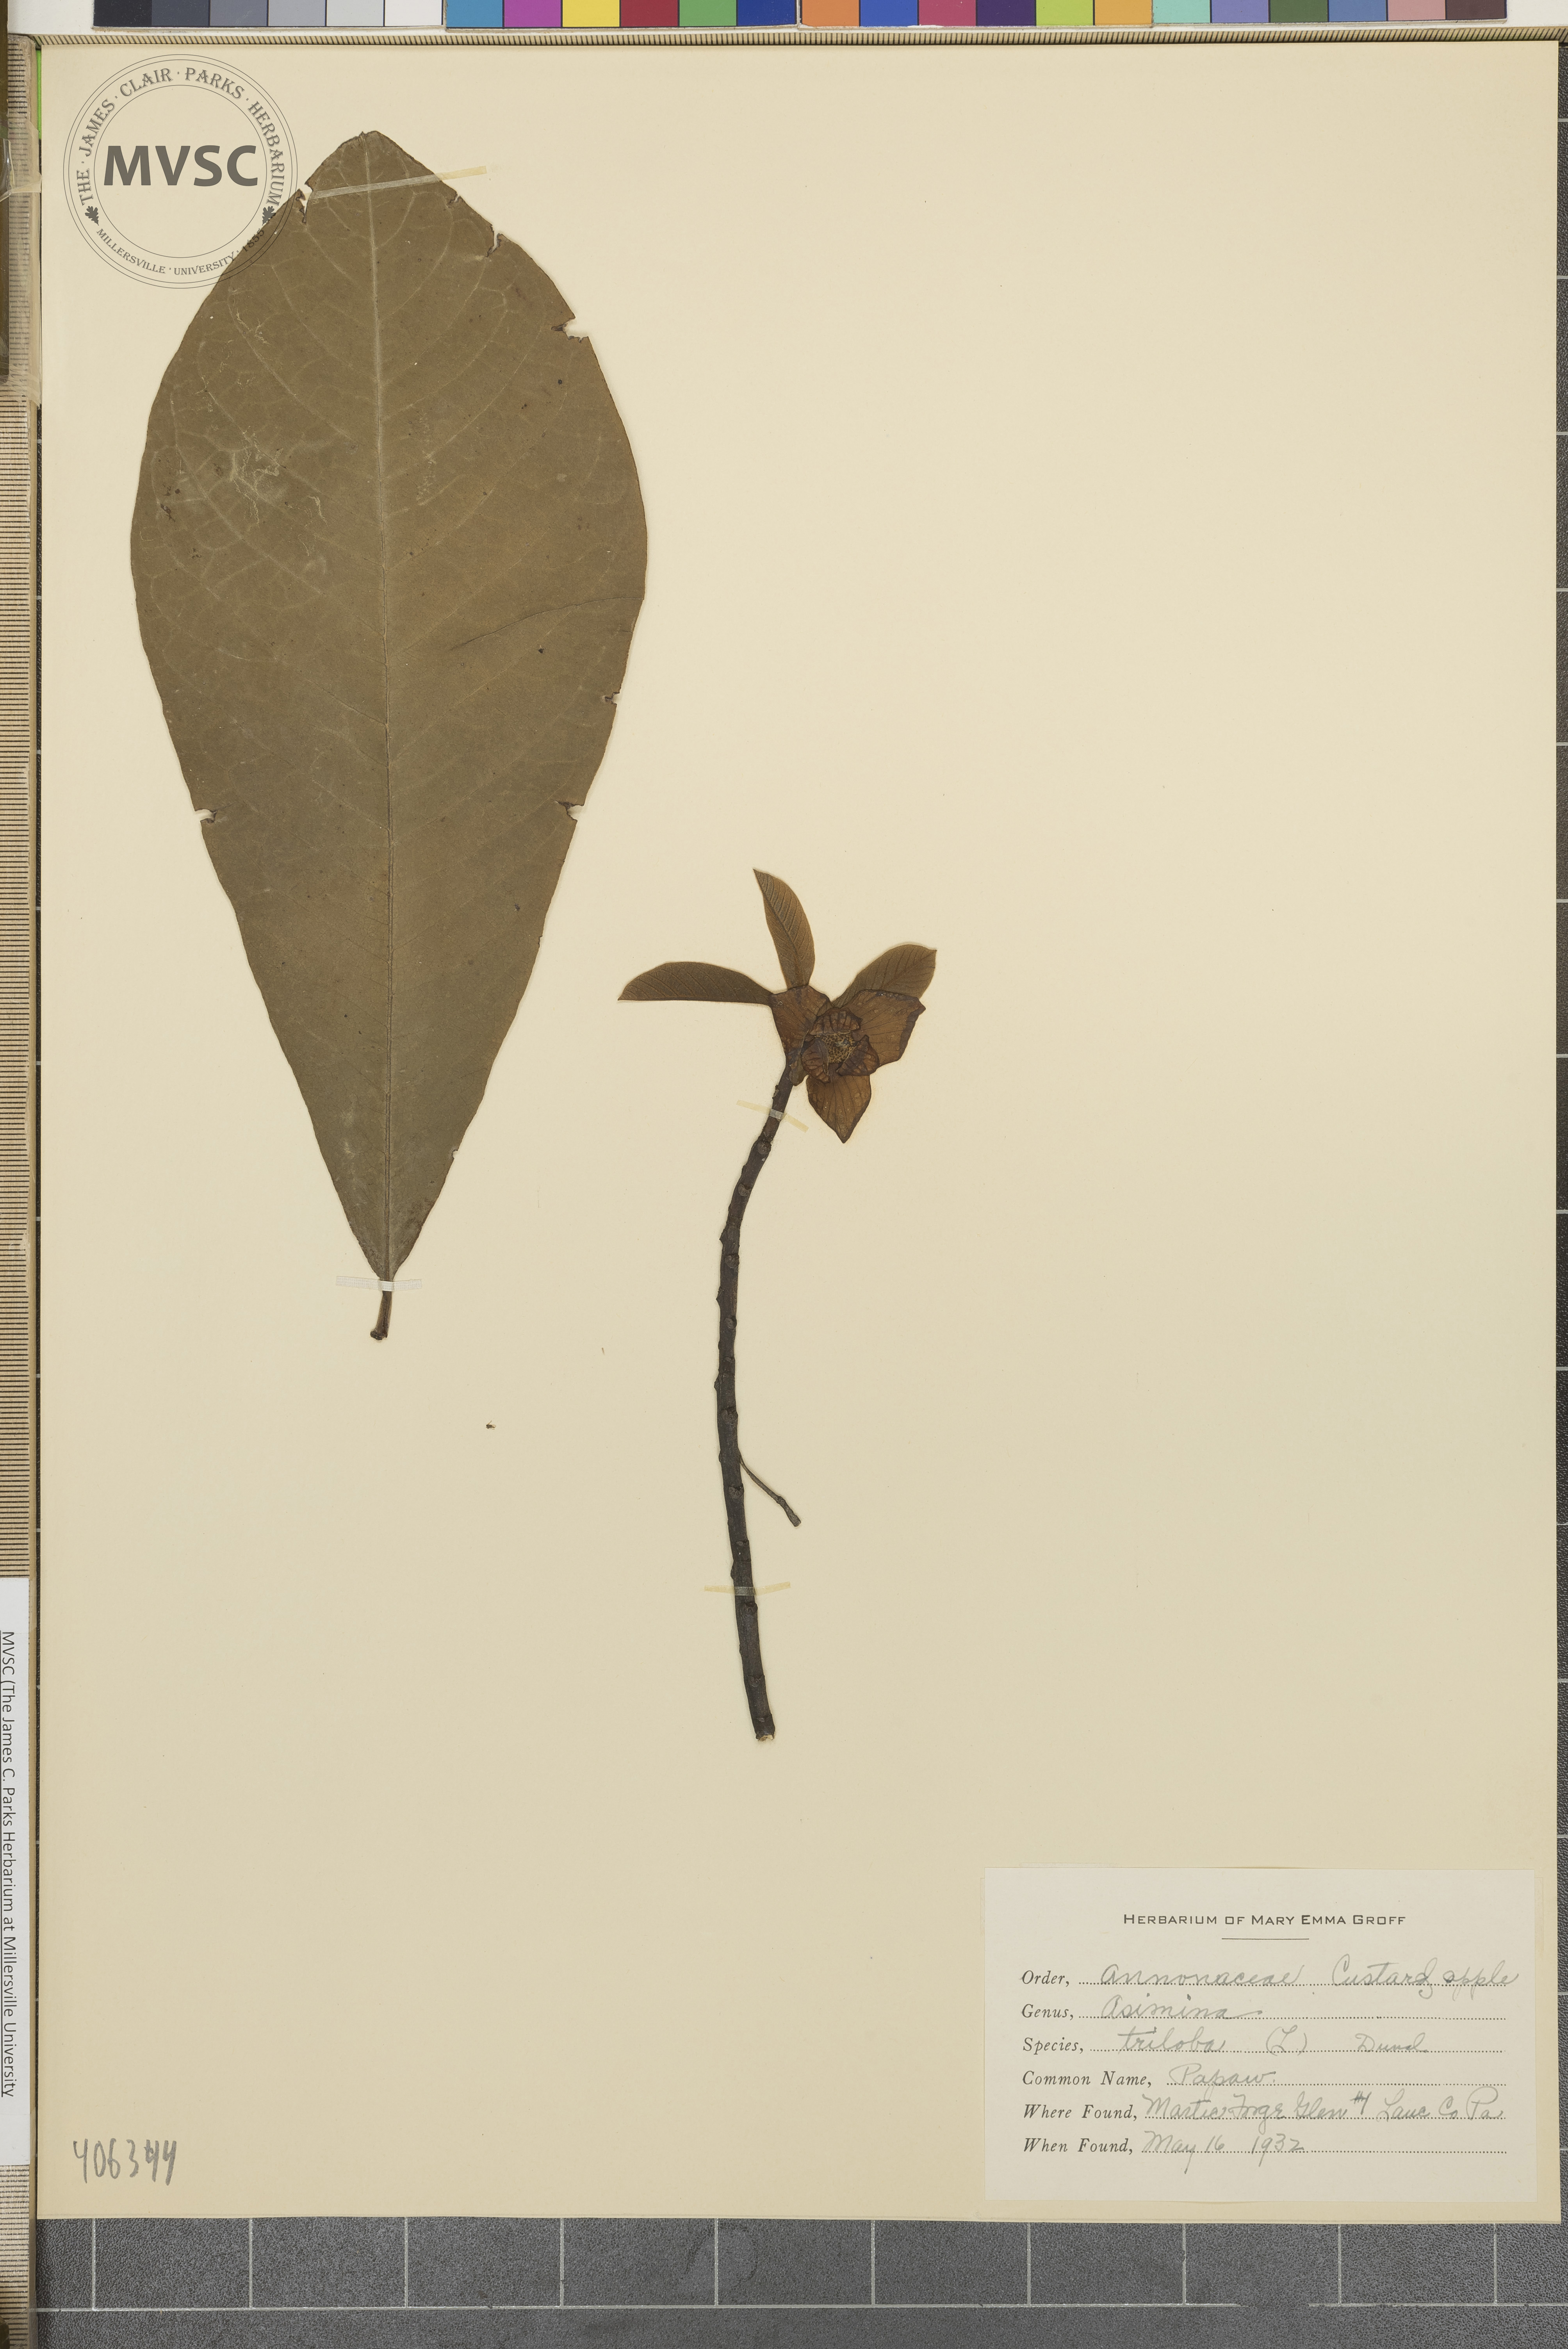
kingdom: Plantae
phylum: Tracheophyta
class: Magnoliopsida
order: Magnoliales
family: Annonaceae
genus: Asimina
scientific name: Asimina triloba
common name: Dog-banana
